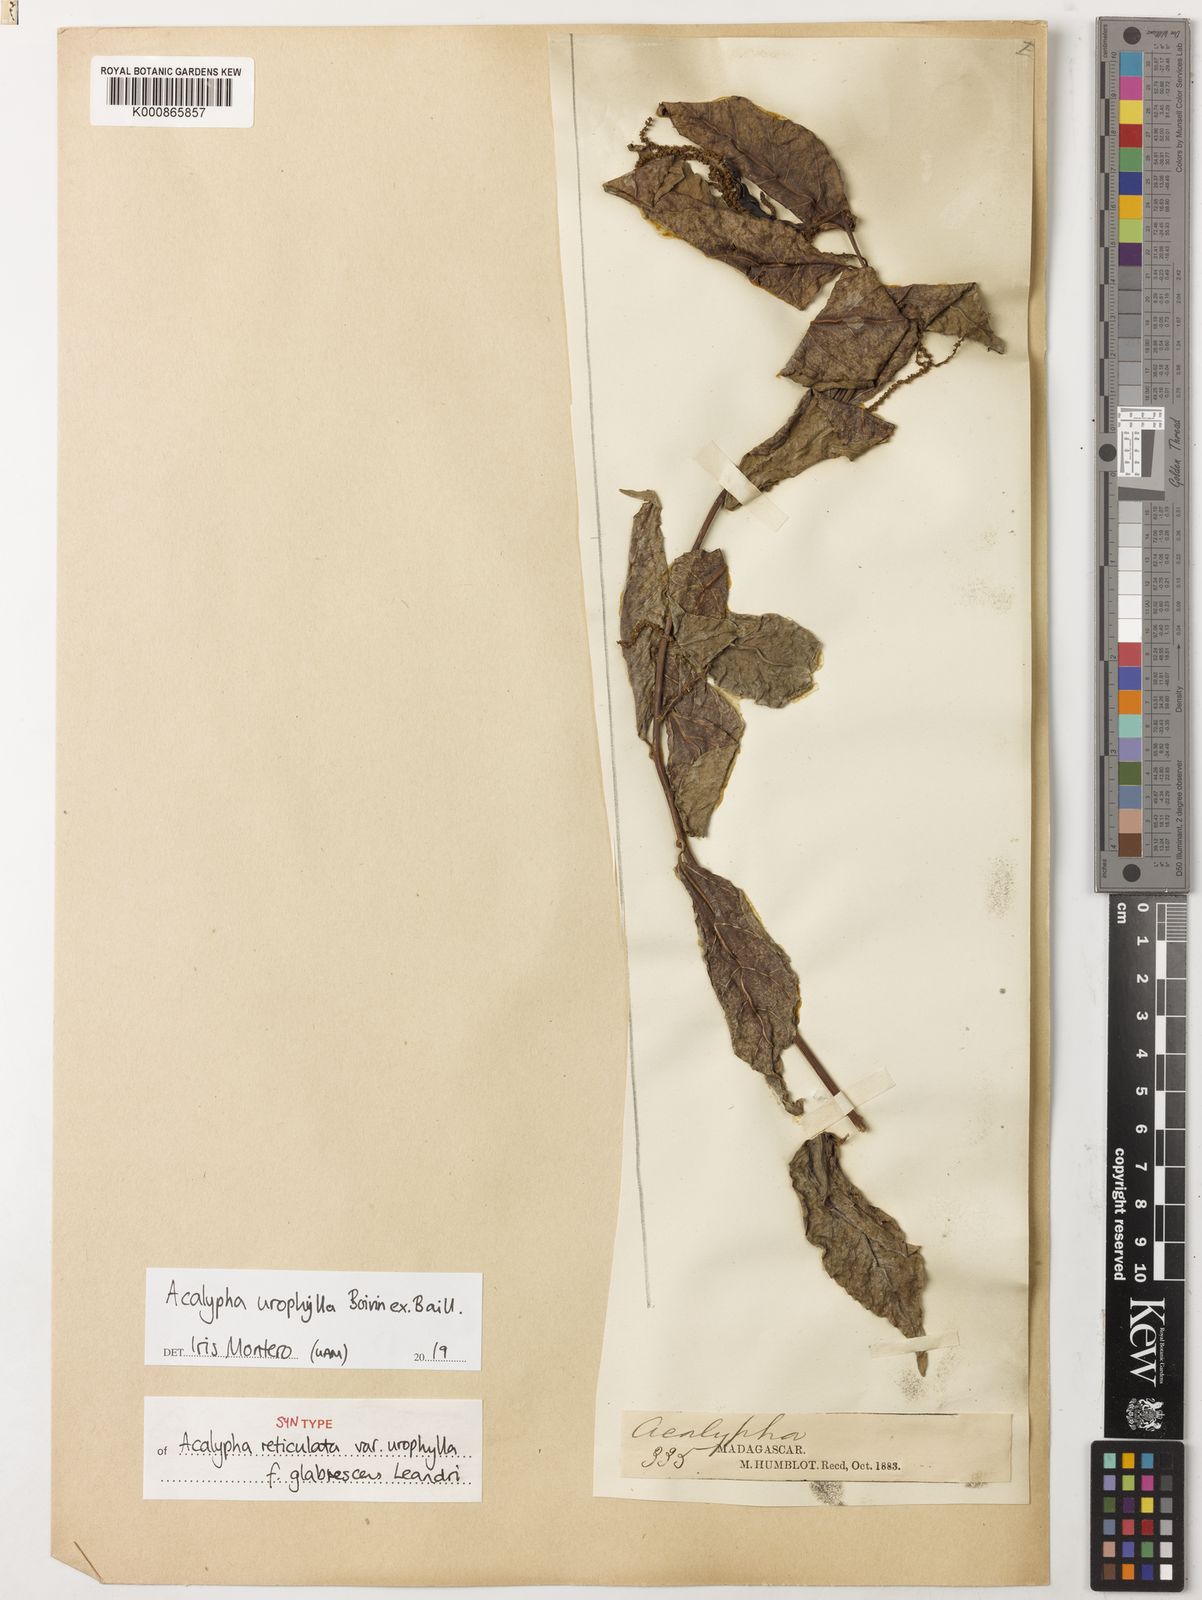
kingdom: Plantae
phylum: Tracheophyta
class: Magnoliopsida
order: Malpighiales
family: Euphorbiaceae
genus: Acalypha
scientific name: Acalypha urophylla
